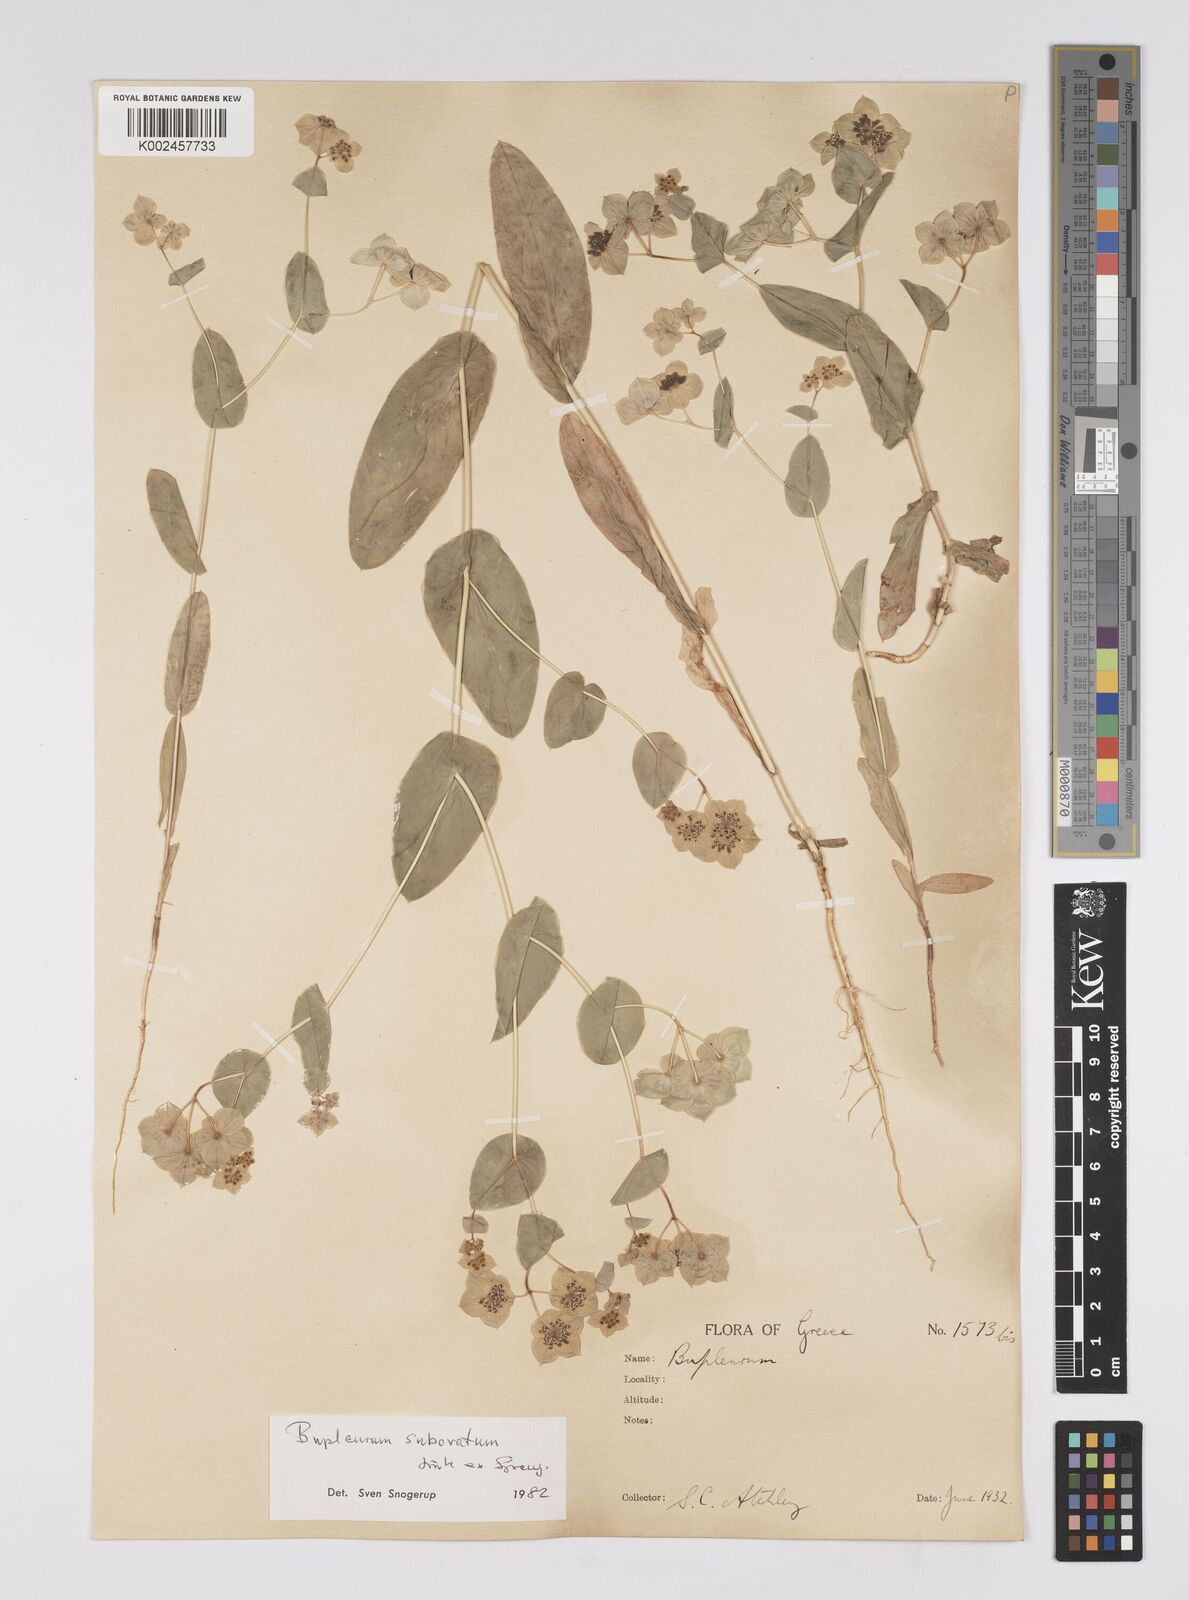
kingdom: Plantae
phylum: Tracheophyta
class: Magnoliopsida
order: Apiales
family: Apiaceae
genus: Bupleurum
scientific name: Bupleurum subovatum
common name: False thorow-wax
